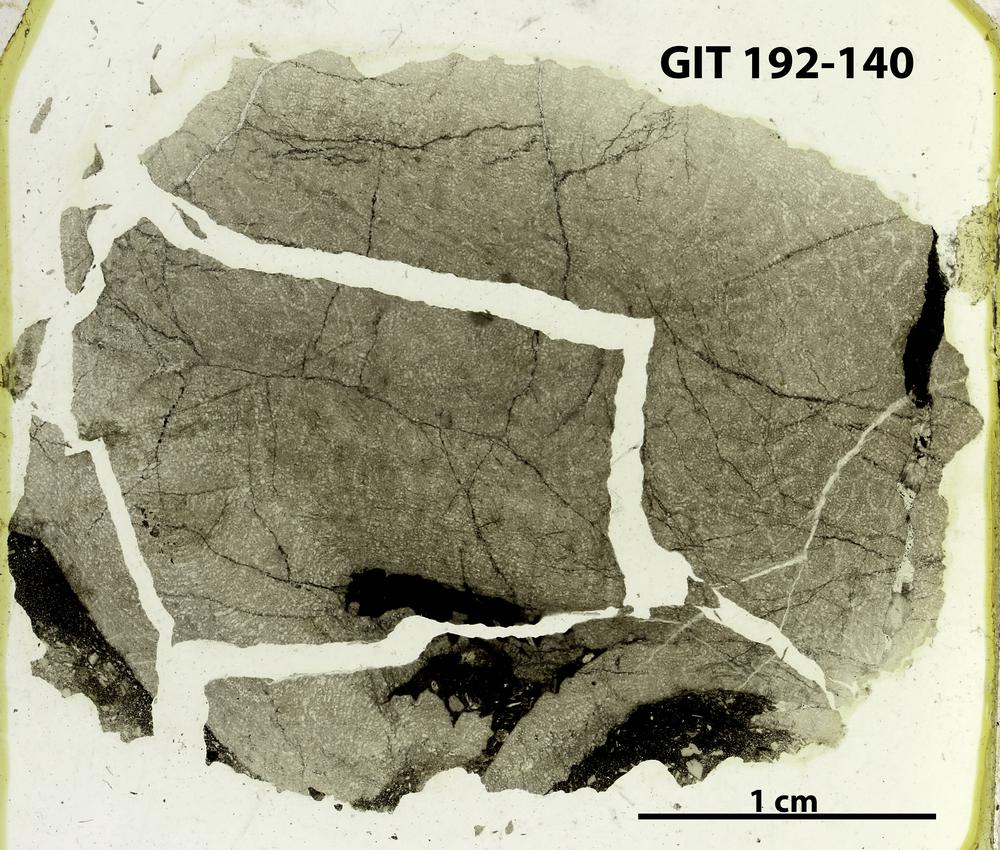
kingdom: Animalia
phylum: Porifera
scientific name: Porifera
